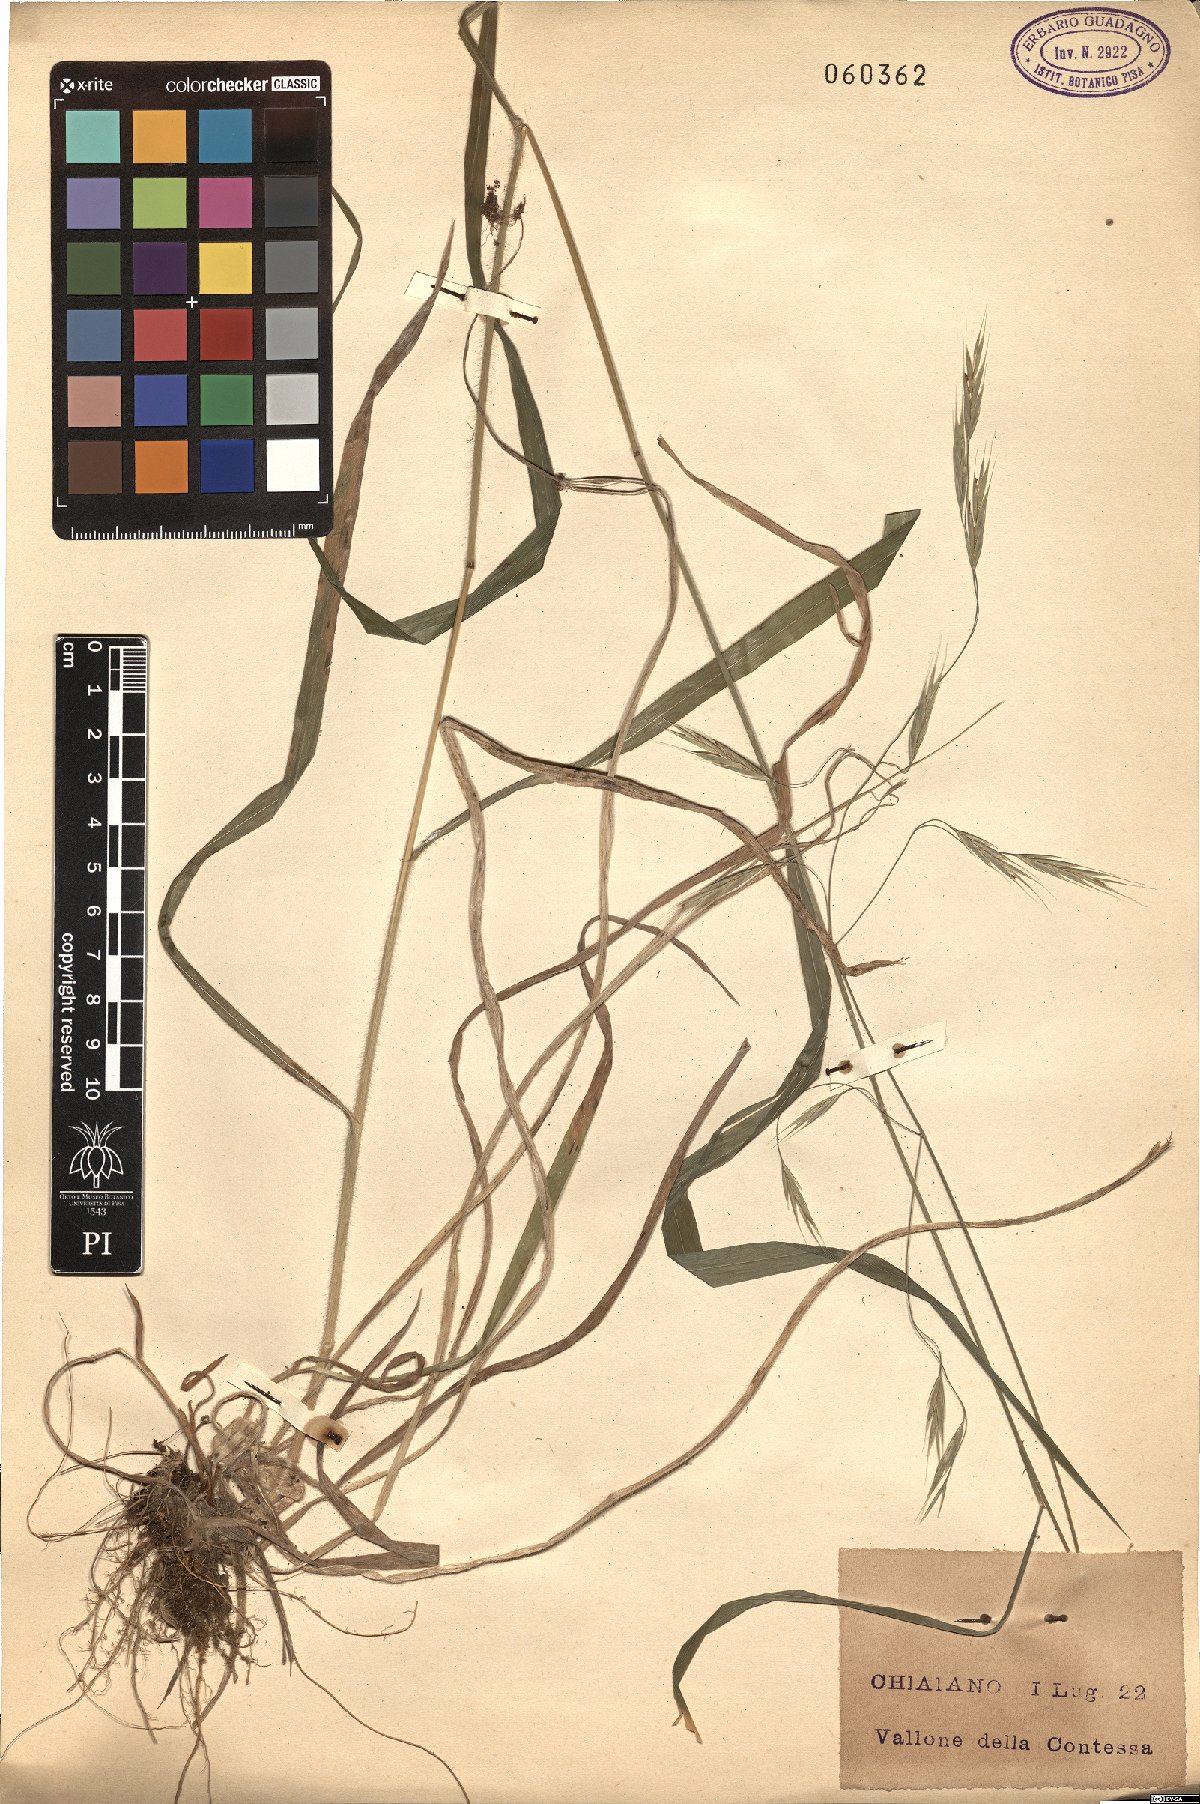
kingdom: Plantae
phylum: Tracheophyta
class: Liliopsida
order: Poales
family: Poaceae
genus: Bromus
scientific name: Bromus ramosus
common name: Hairy brome
